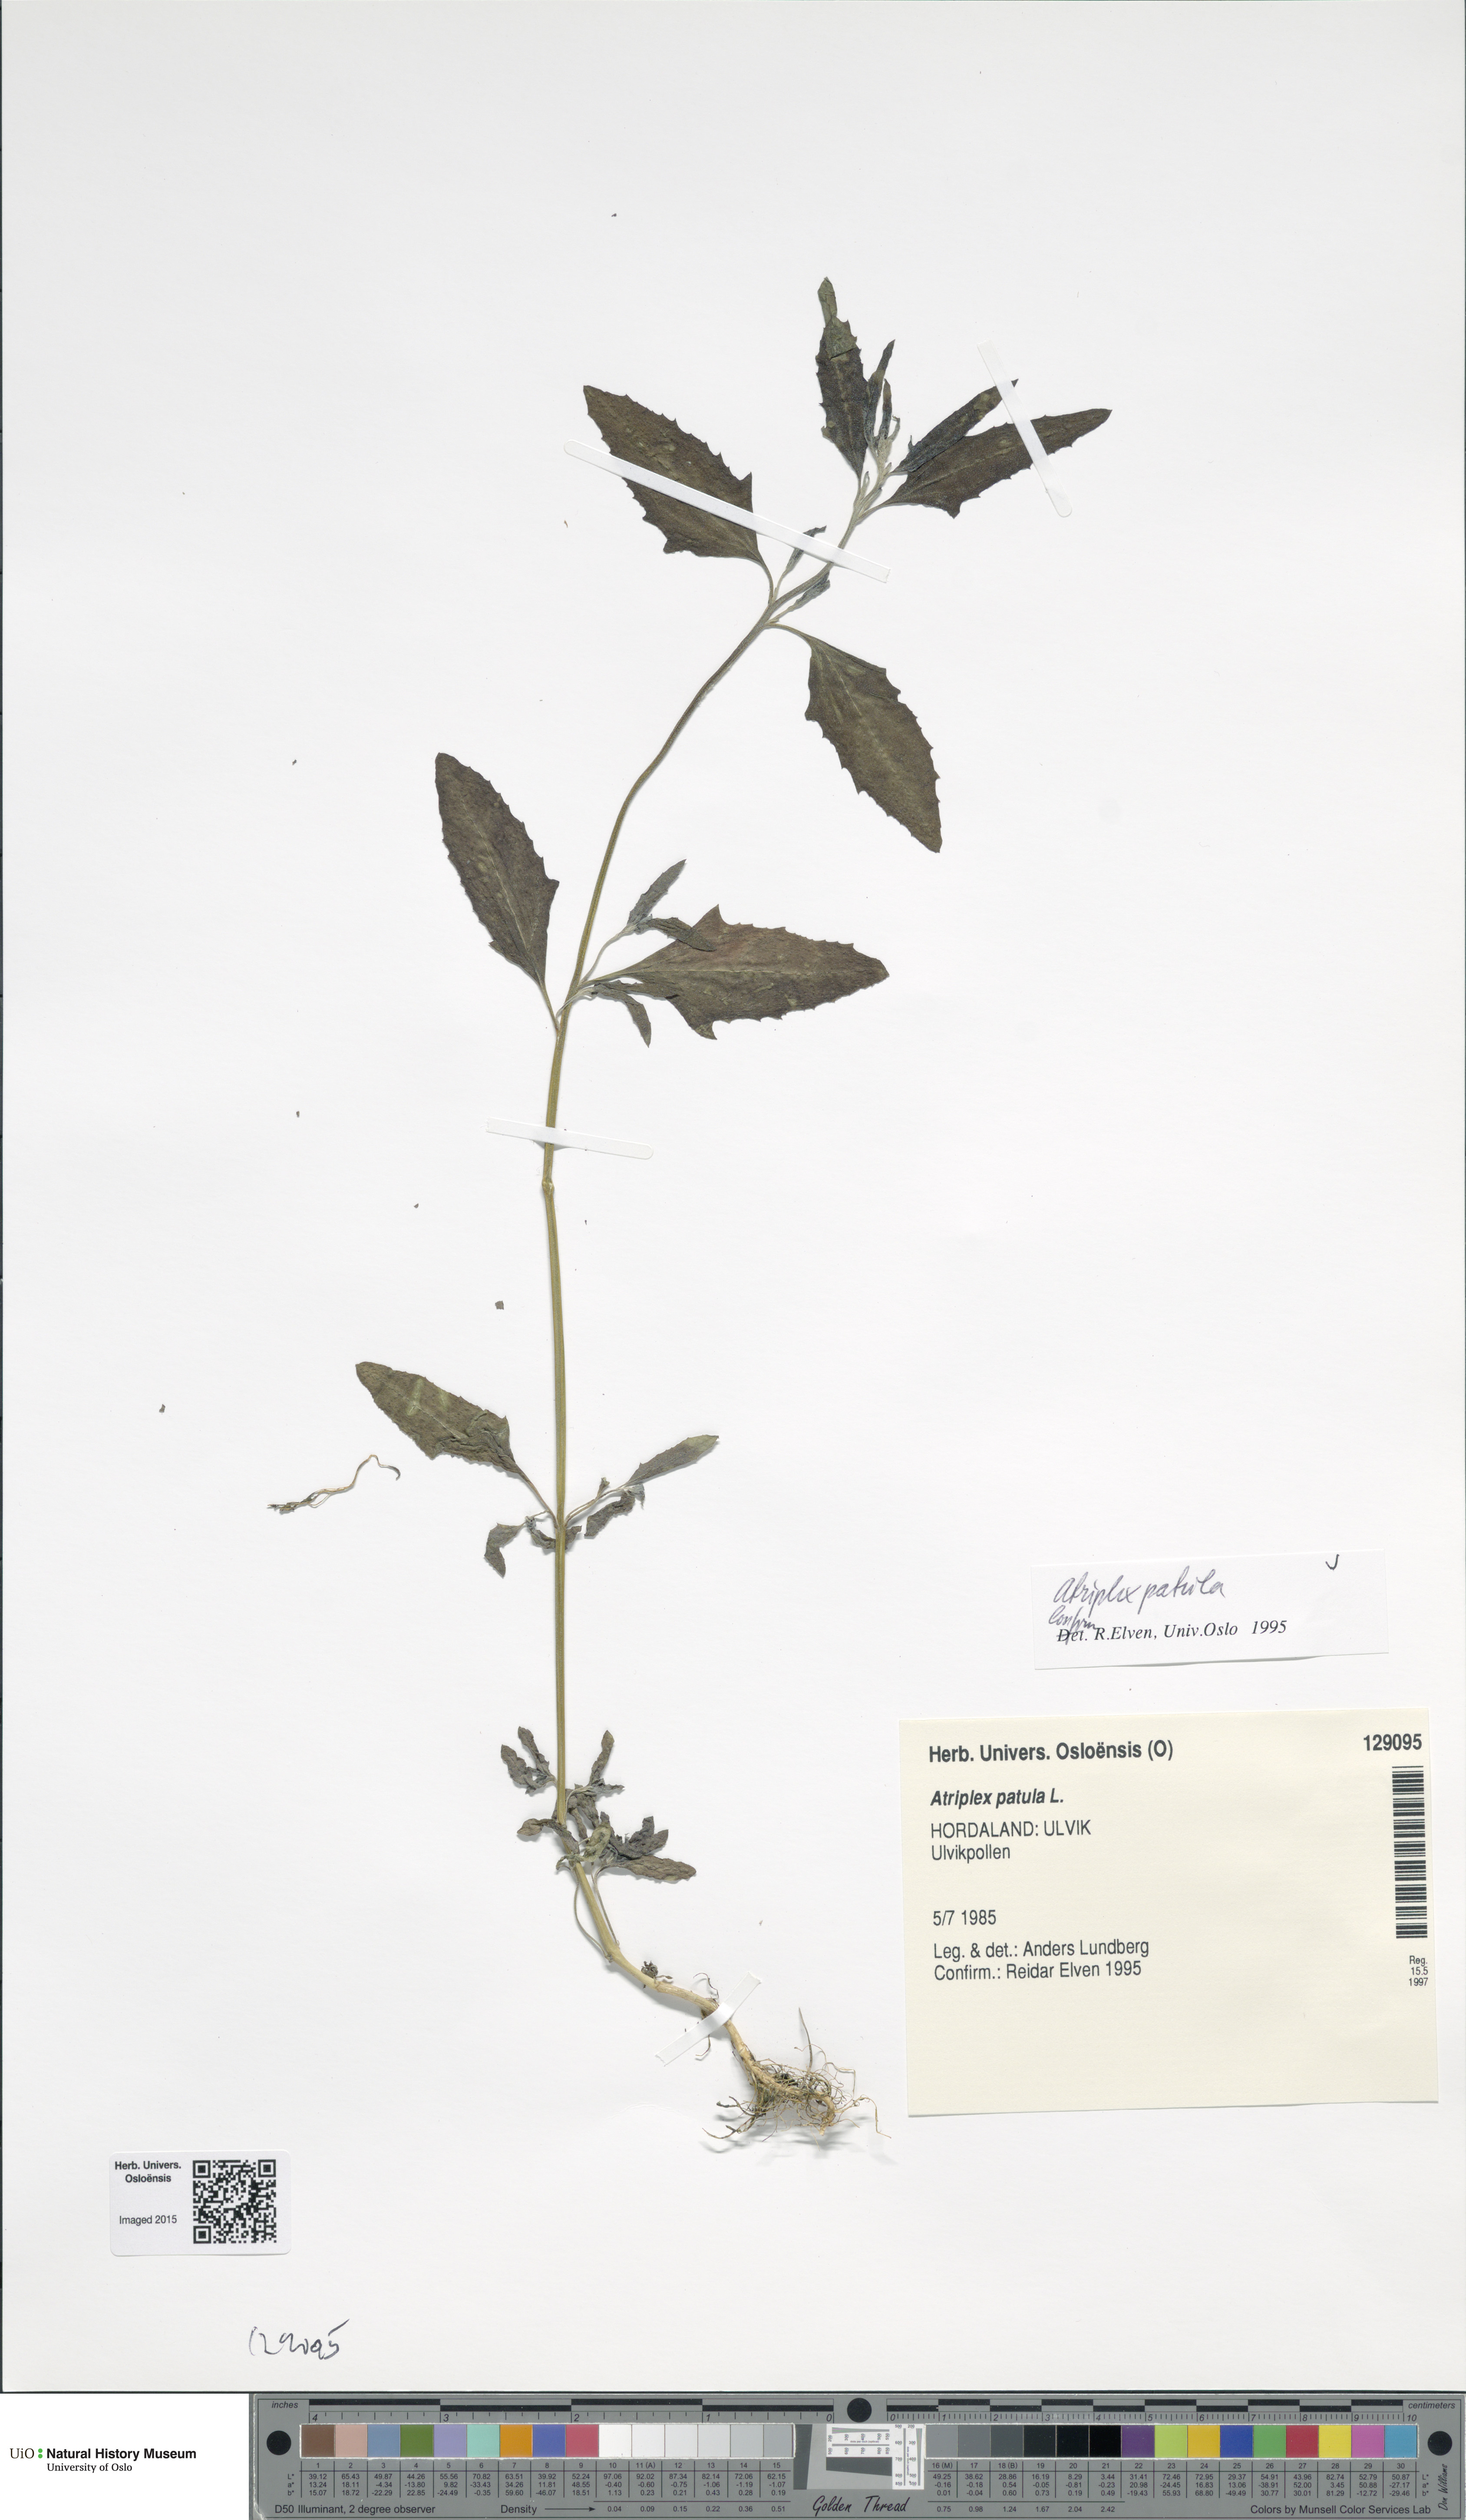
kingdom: Plantae
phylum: Tracheophyta
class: Magnoliopsida
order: Caryophyllales
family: Amaranthaceae
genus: Atriplex
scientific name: Atriplex patula
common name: Common orache
